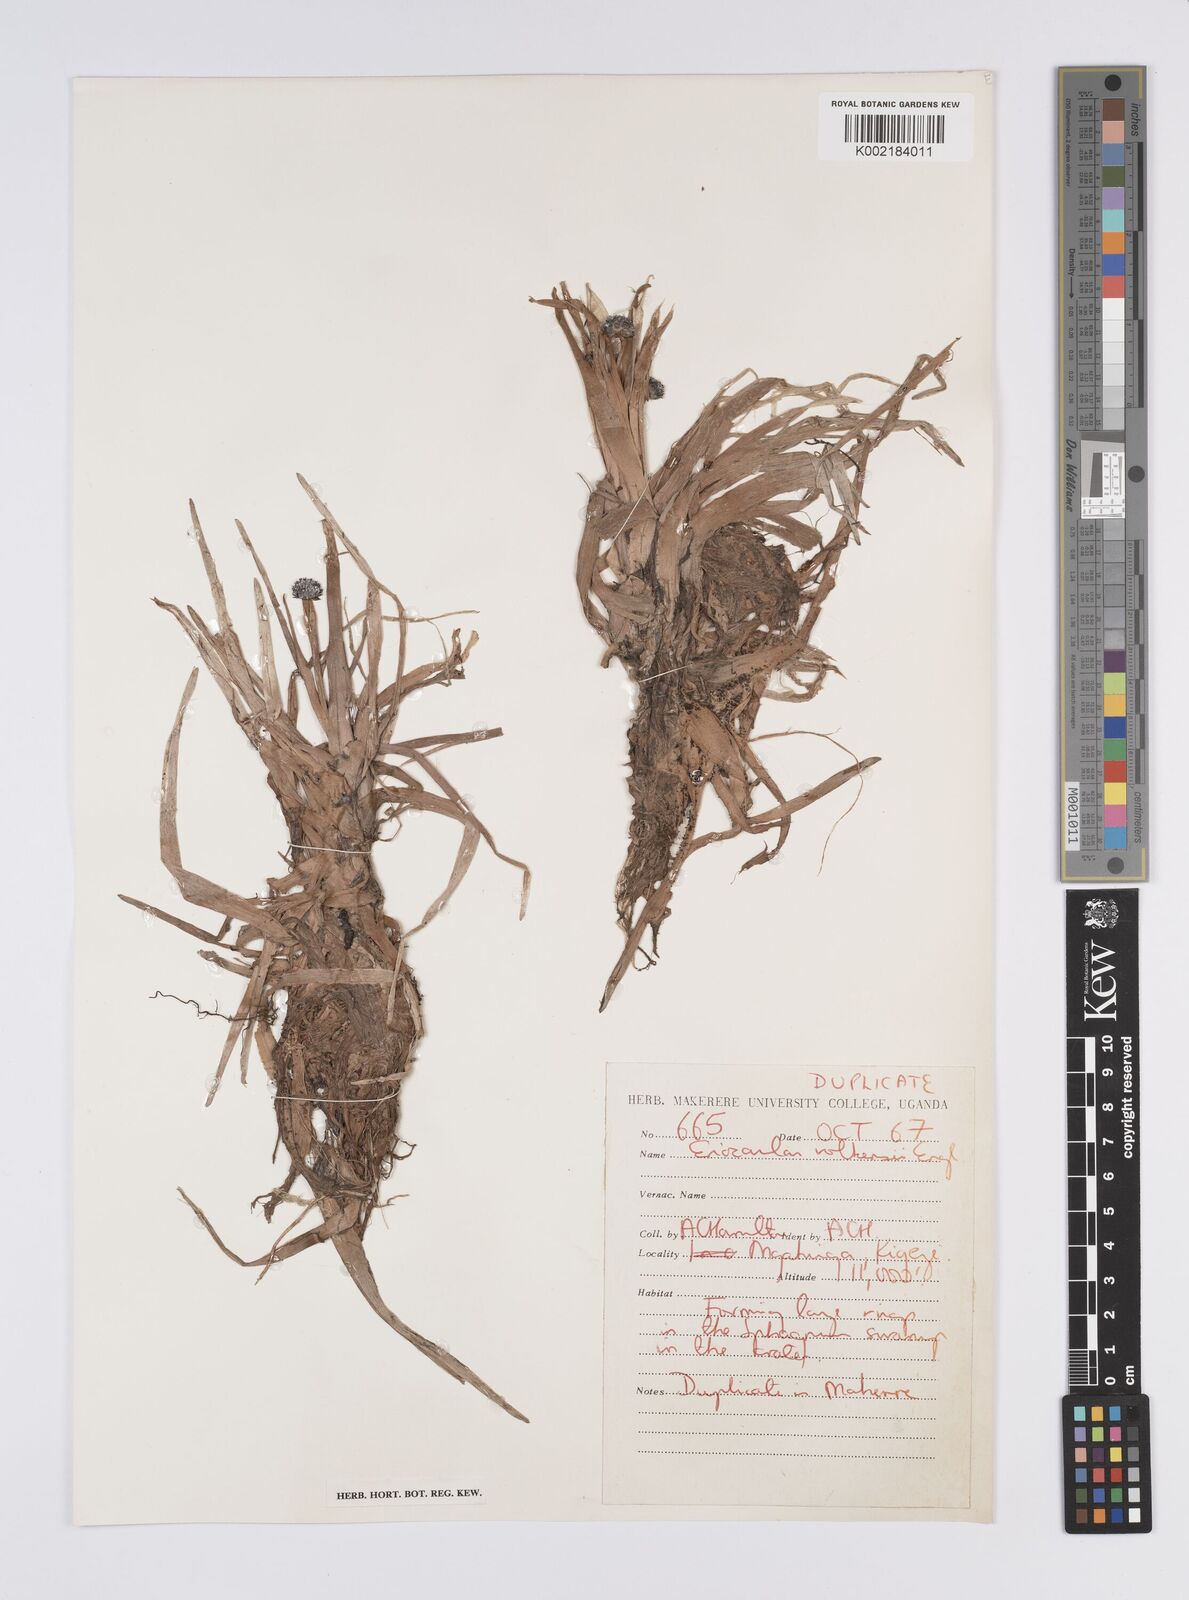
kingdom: Plantae
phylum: Tracheophyta
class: Liliopsida
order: Poales
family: Eriocaulaceae
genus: Eriocaulon
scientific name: Eriocaulon volkensii
